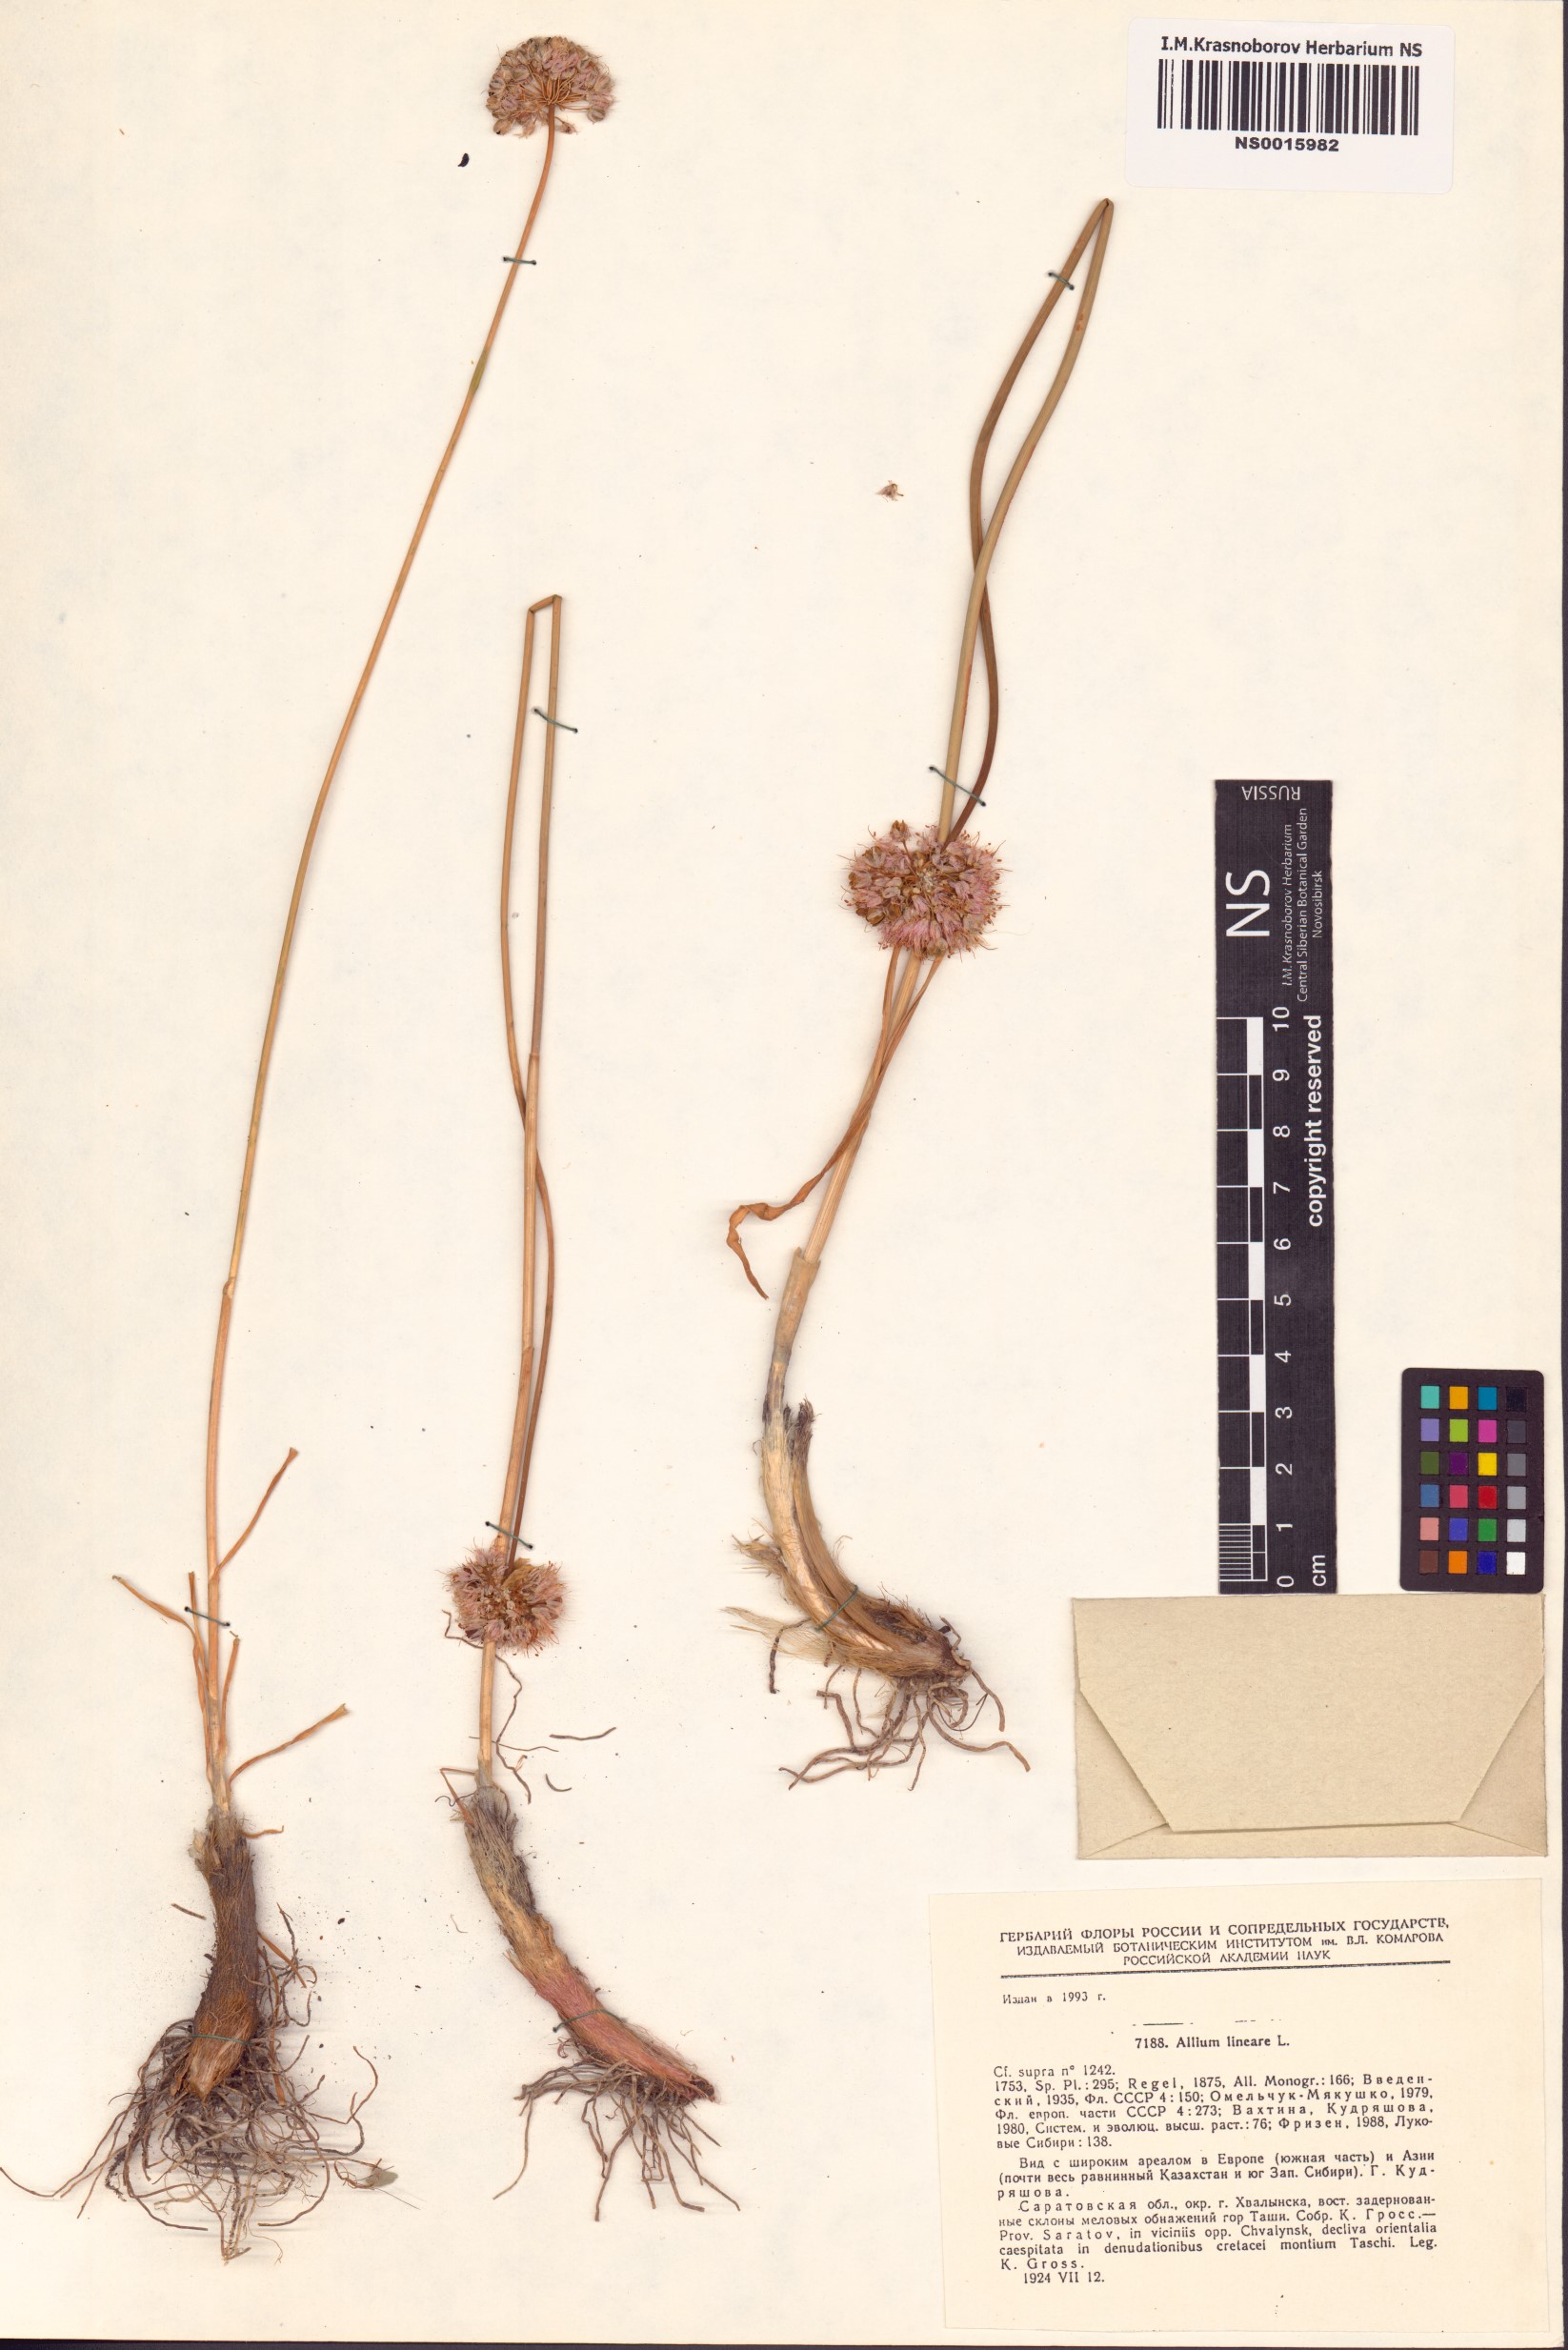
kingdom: Plantae
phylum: Tracheophyta
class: Liliopsida
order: Asparagales
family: Amaryllidaceae
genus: Allium
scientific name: Allium lineare
